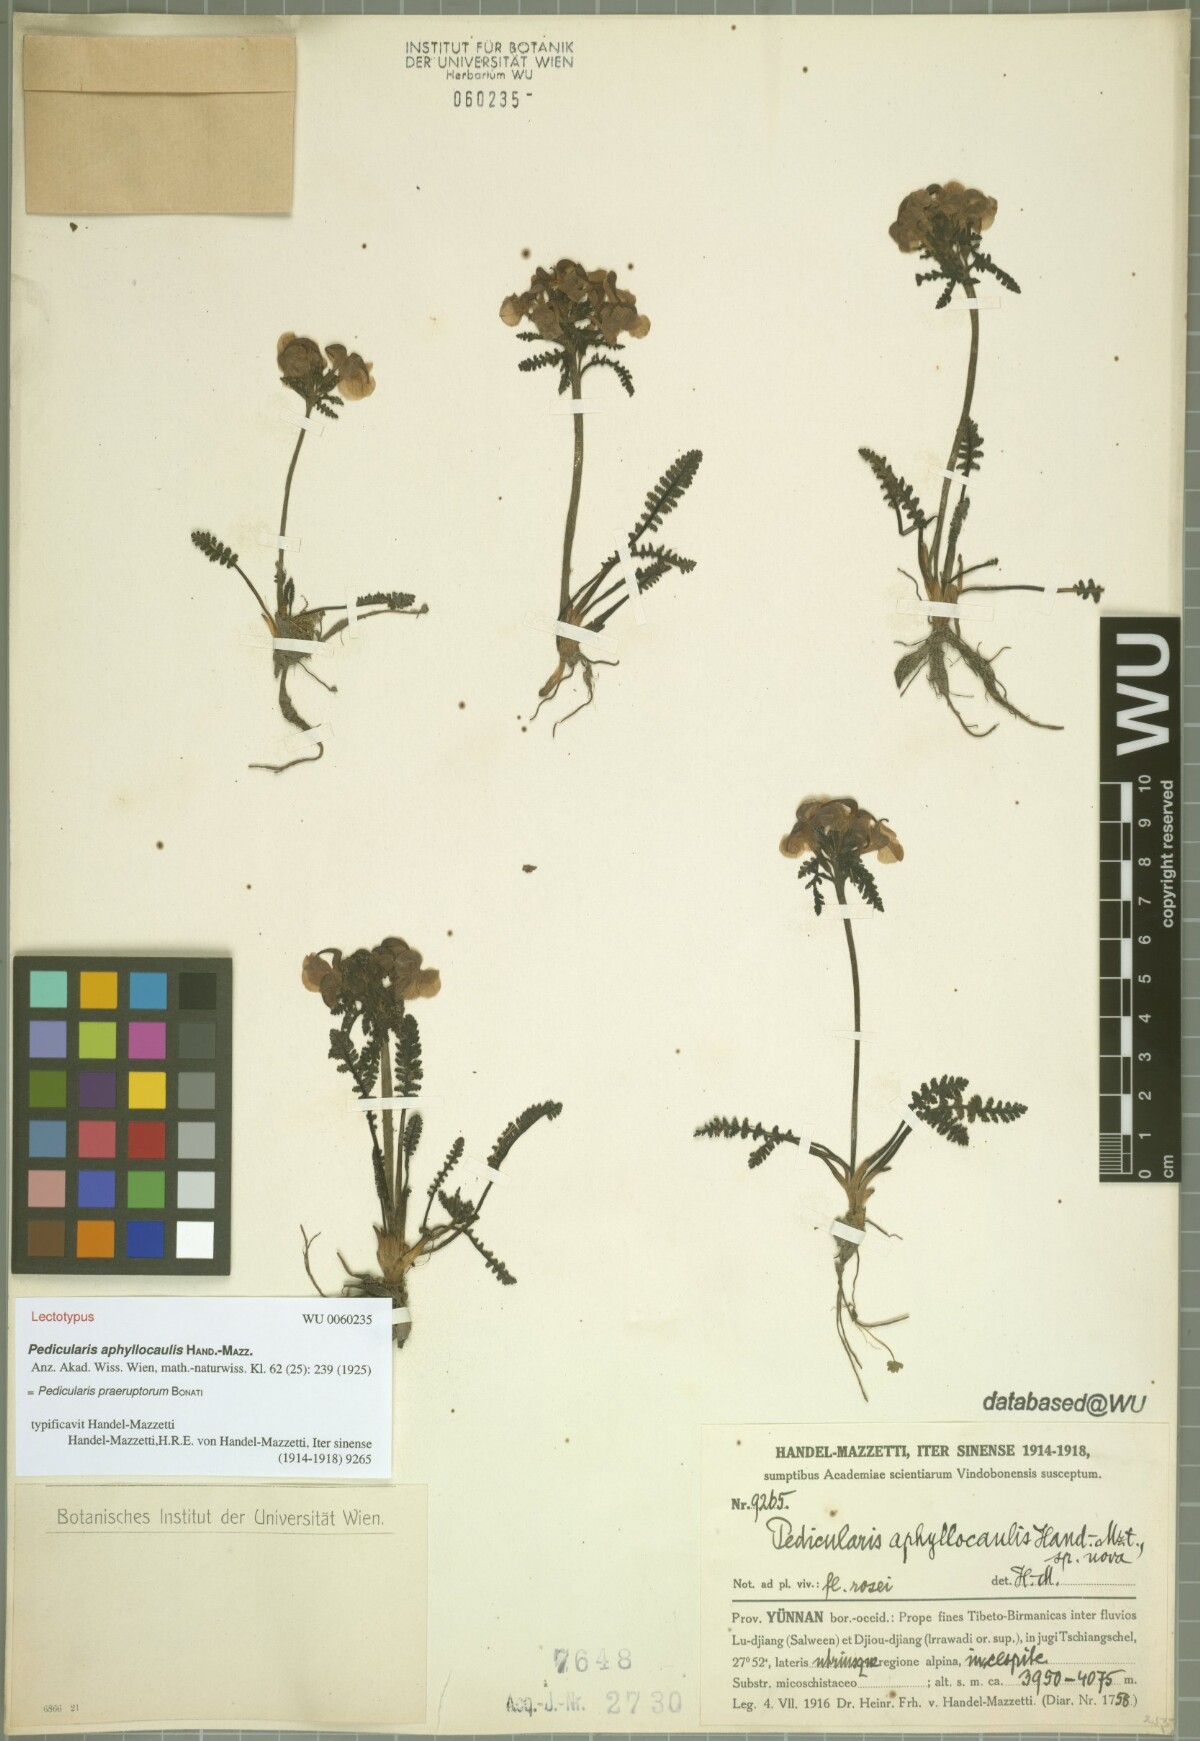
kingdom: Plantae
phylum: Tracheophyta
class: Magnoliopsida
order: Lamiales
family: Orobanchaceae
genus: Pedicularis
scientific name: Pedicularis praeruptorum
